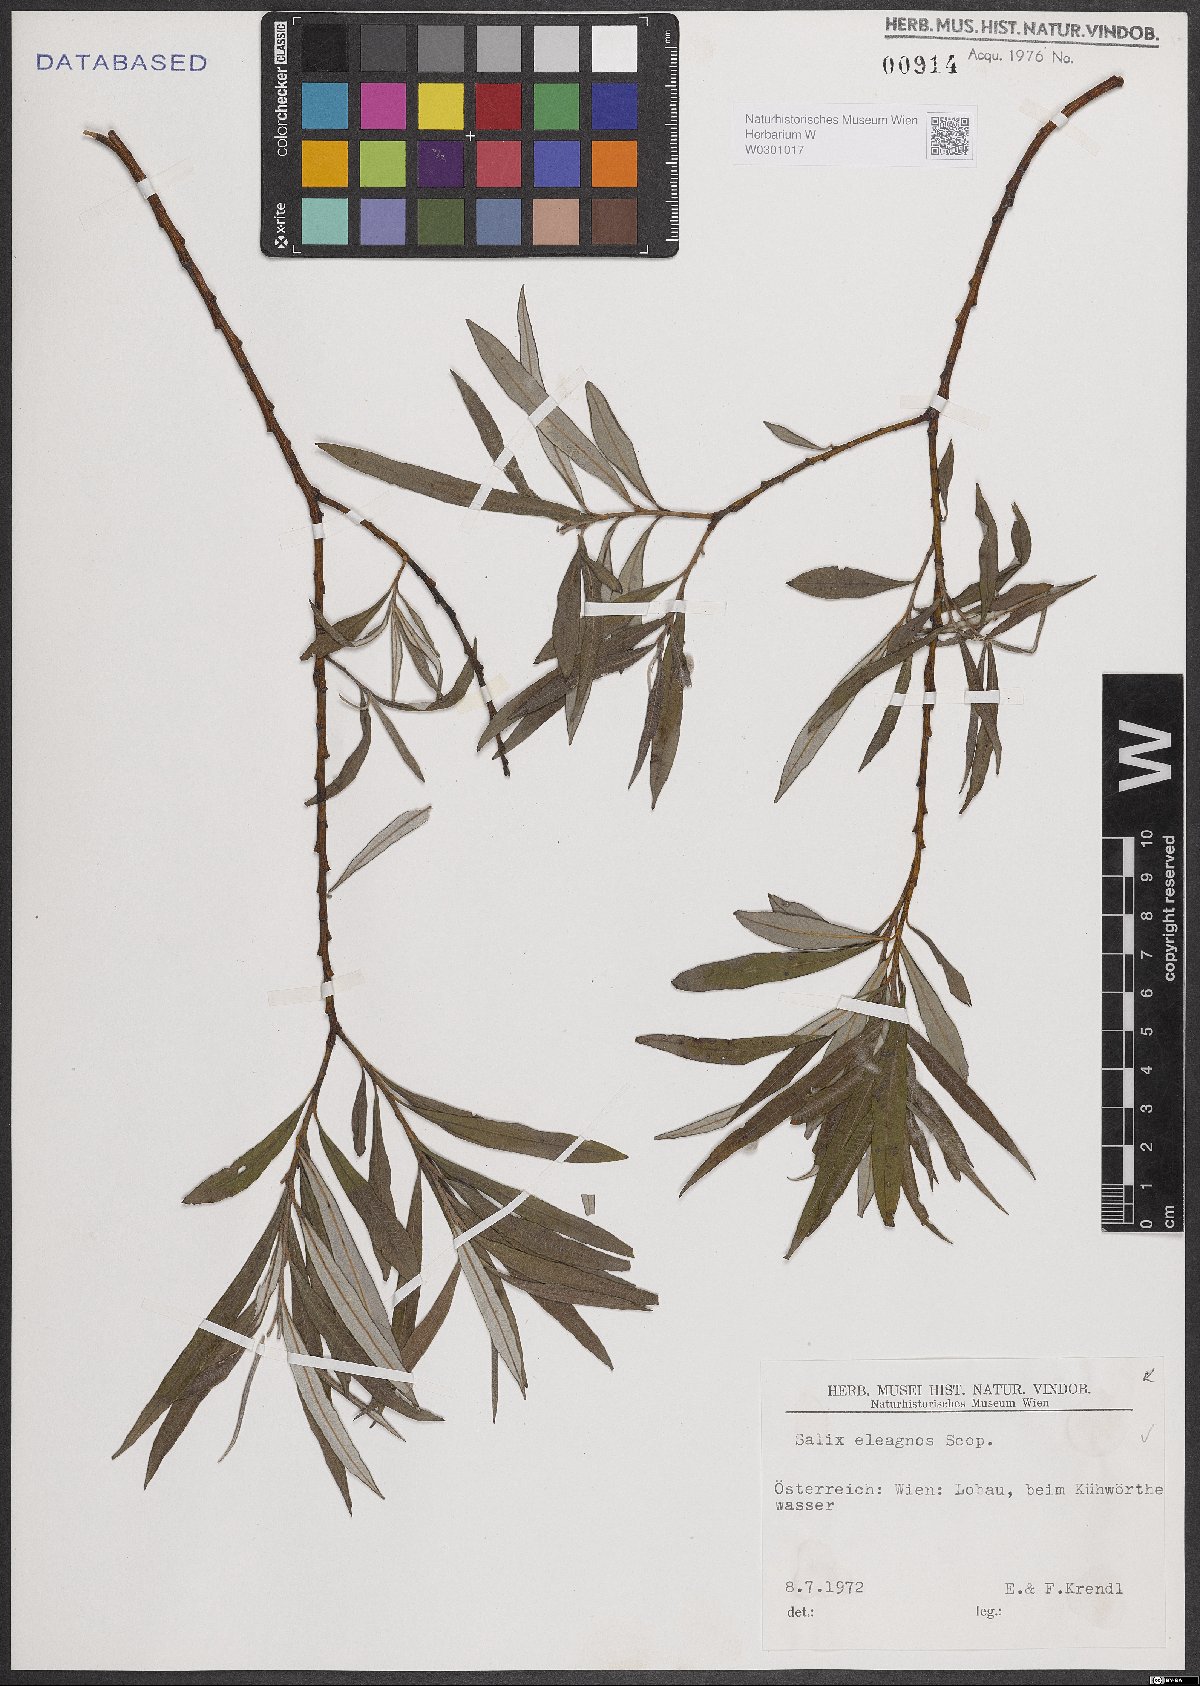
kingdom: Plantae
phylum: Tracheophyta
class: Magnoliopsida
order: Malpighiales
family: Salicaceae
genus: Salix
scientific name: Salix eleagnos
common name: Elaeagnus willow
